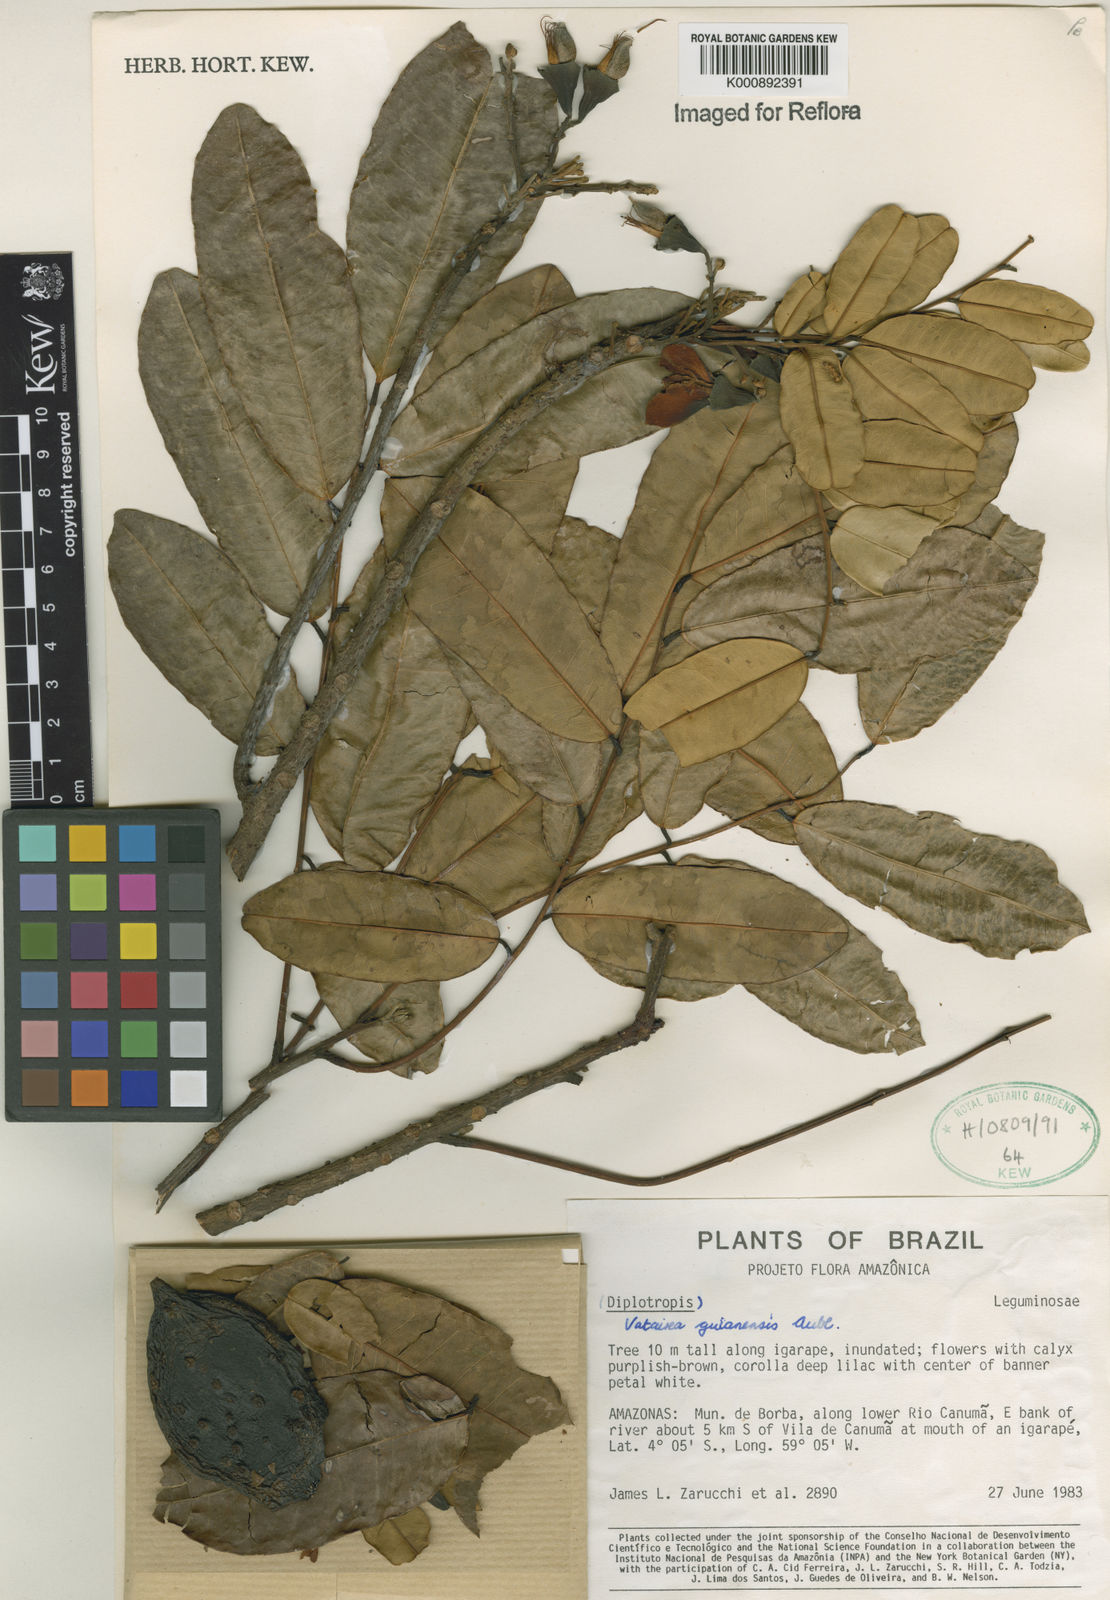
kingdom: Plantae
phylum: Tracheophyta
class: Magnoliopsida
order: Fabales
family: Fabaceae
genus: Vatairea
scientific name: Vatairea guianensis
